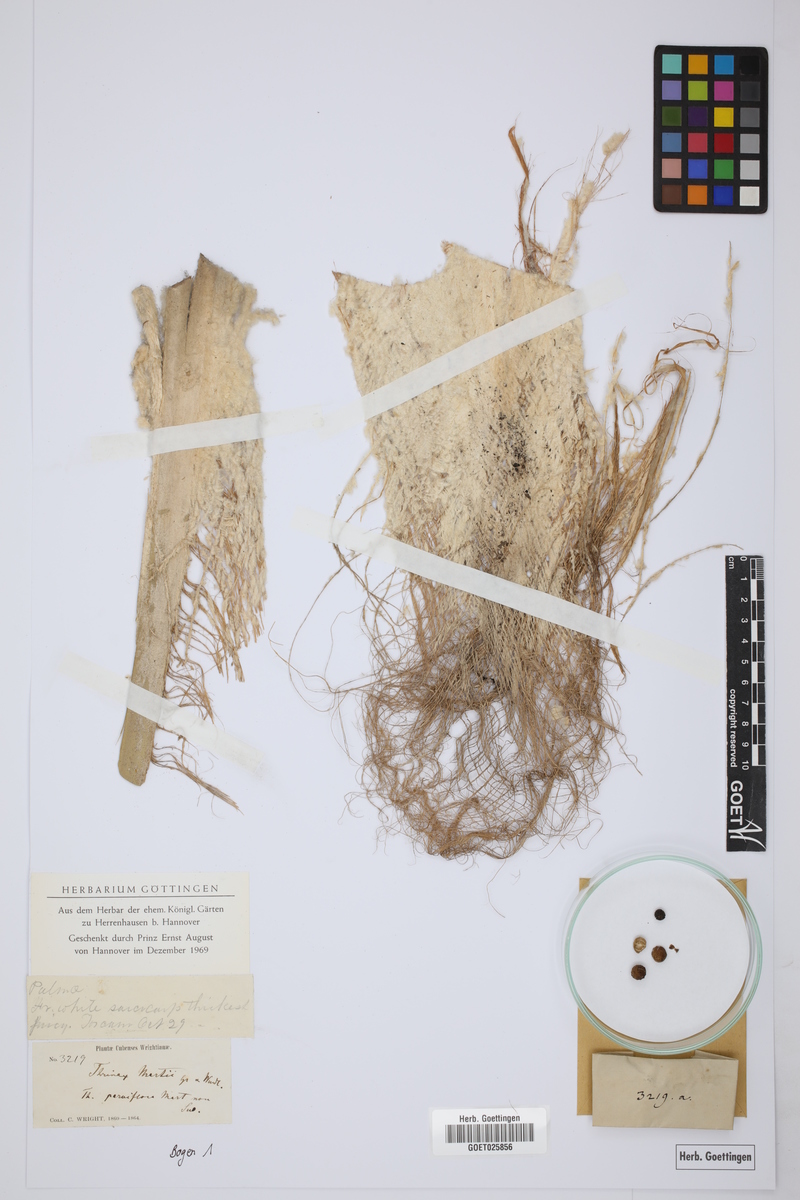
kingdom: Plantae
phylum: Tracheophyta
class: Liliopsida
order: Arecales
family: Arecaceae
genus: Thrinax
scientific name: Thrinax radiata
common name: Florida thatch
